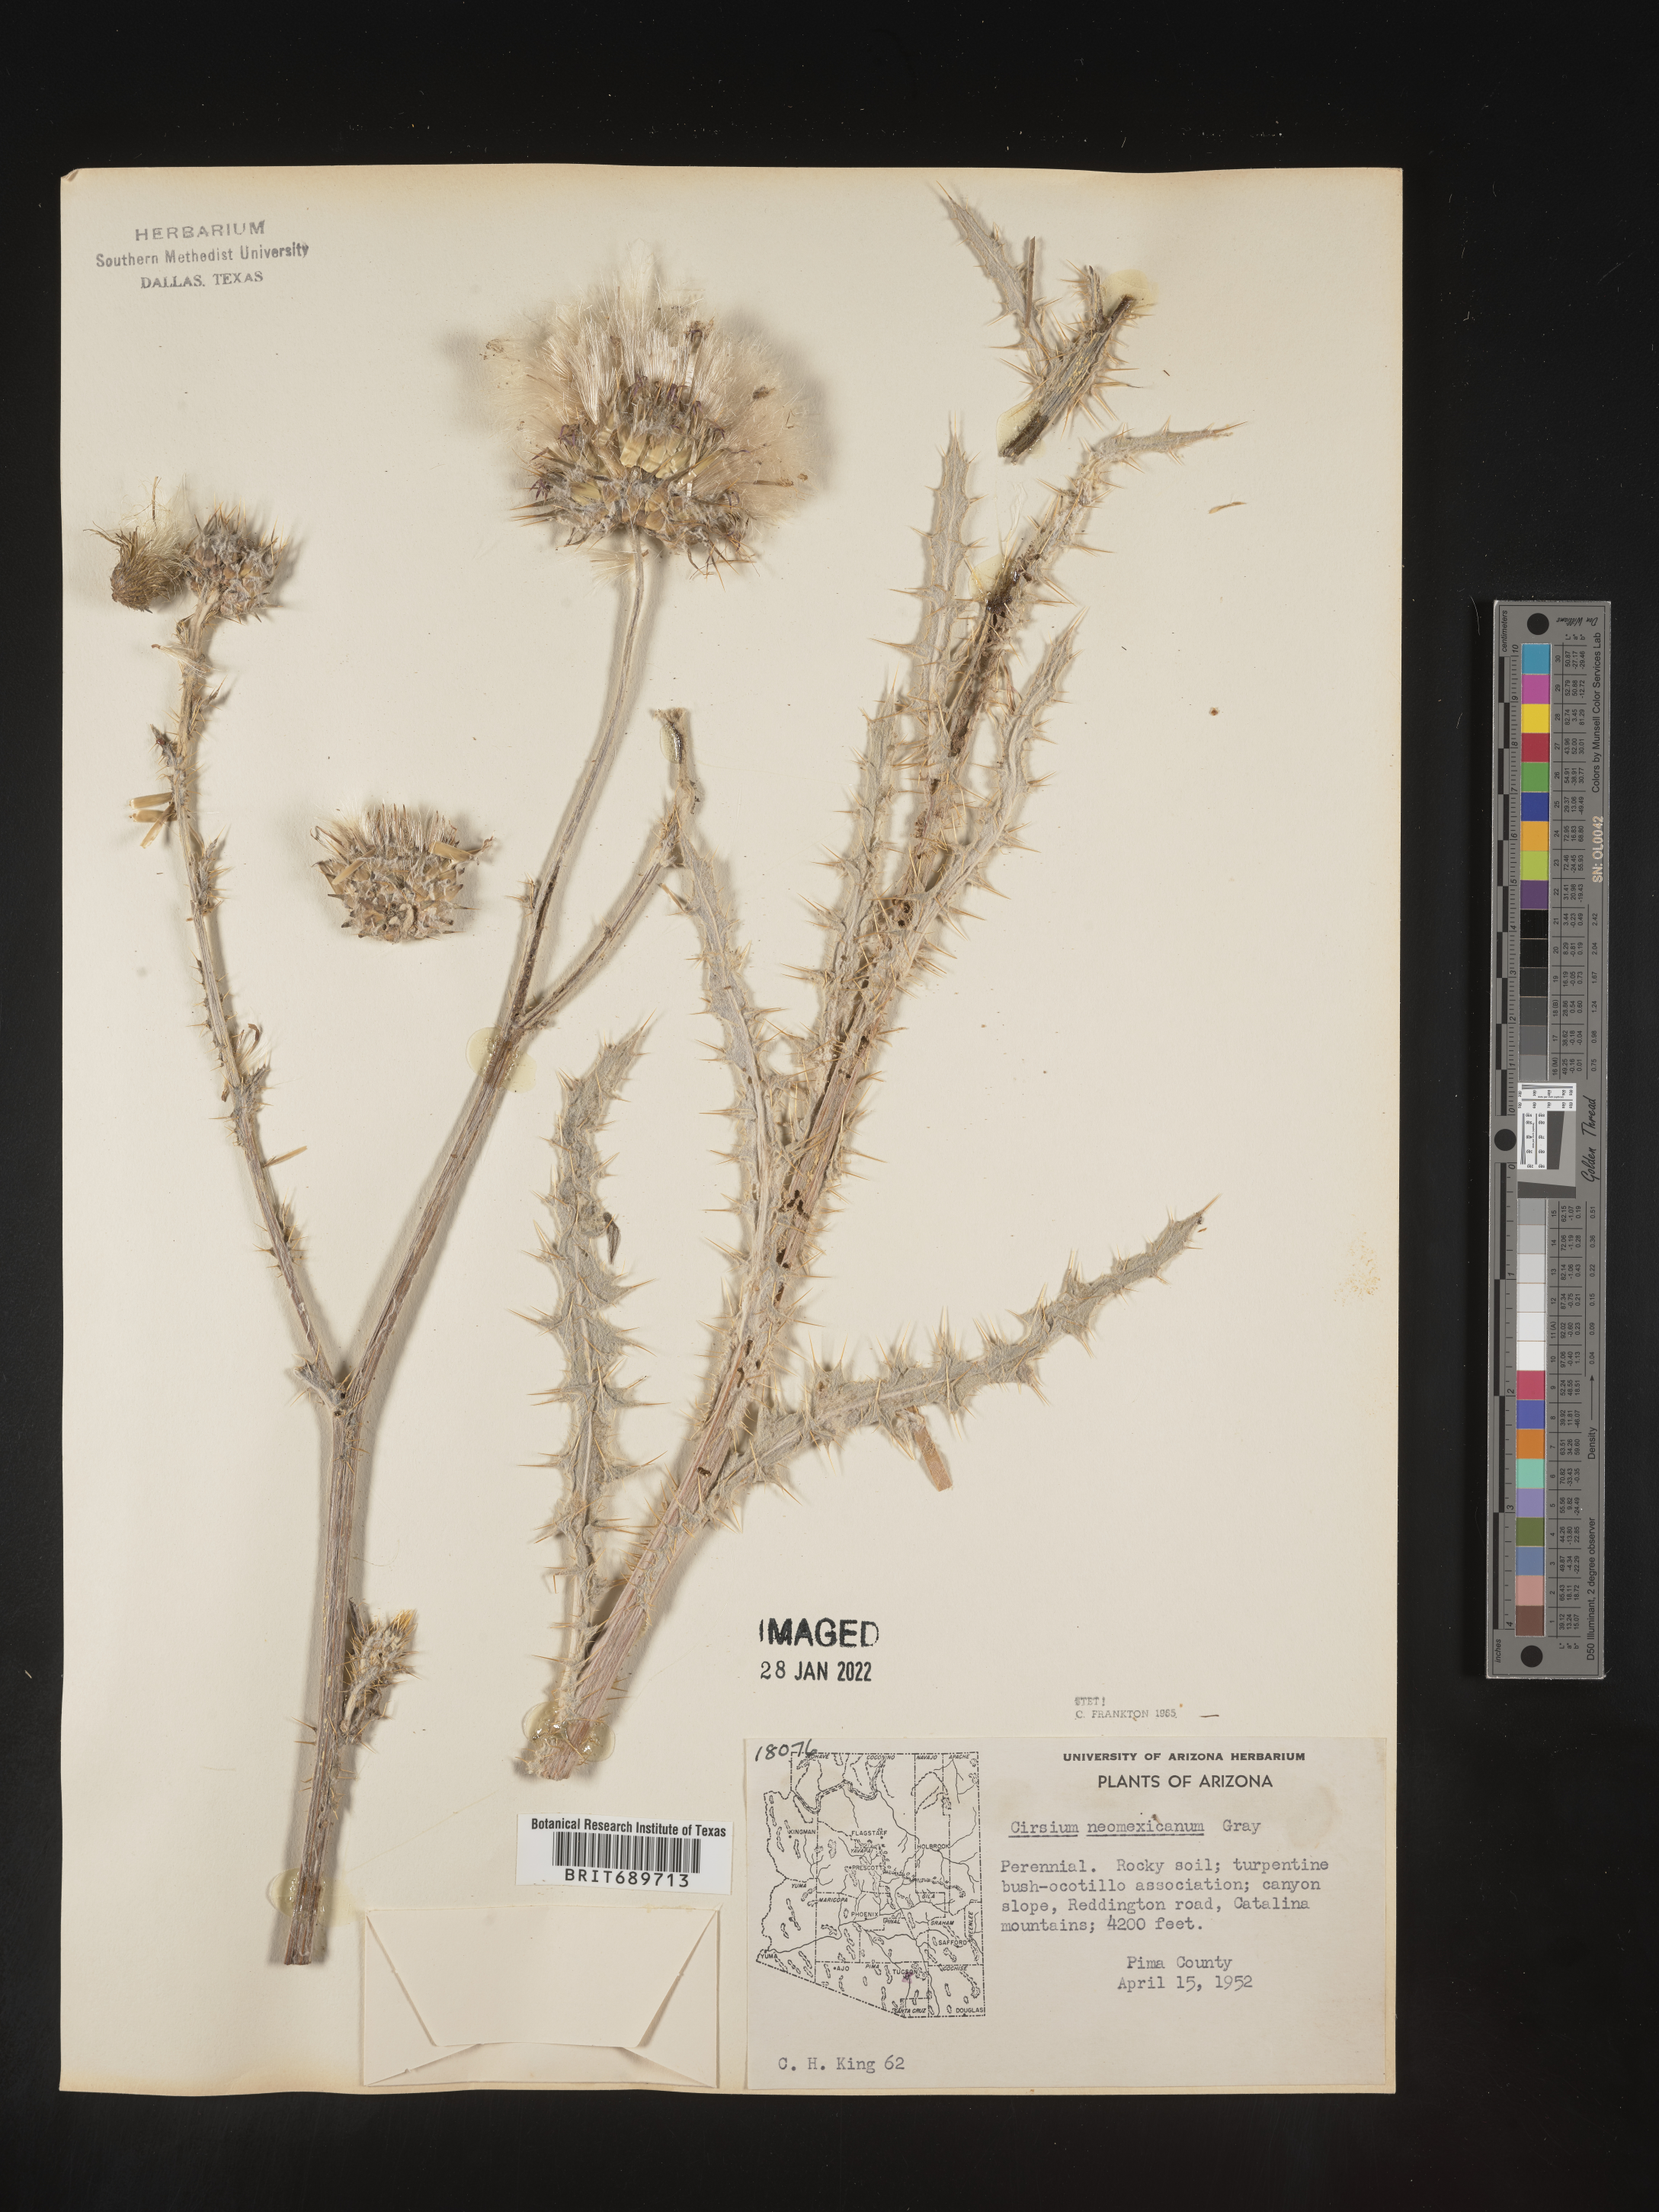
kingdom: Plantae
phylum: Tracheophyta
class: Magnoliopsida
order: Asterales
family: Asteraceae
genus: Cirsium
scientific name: Cirsium
